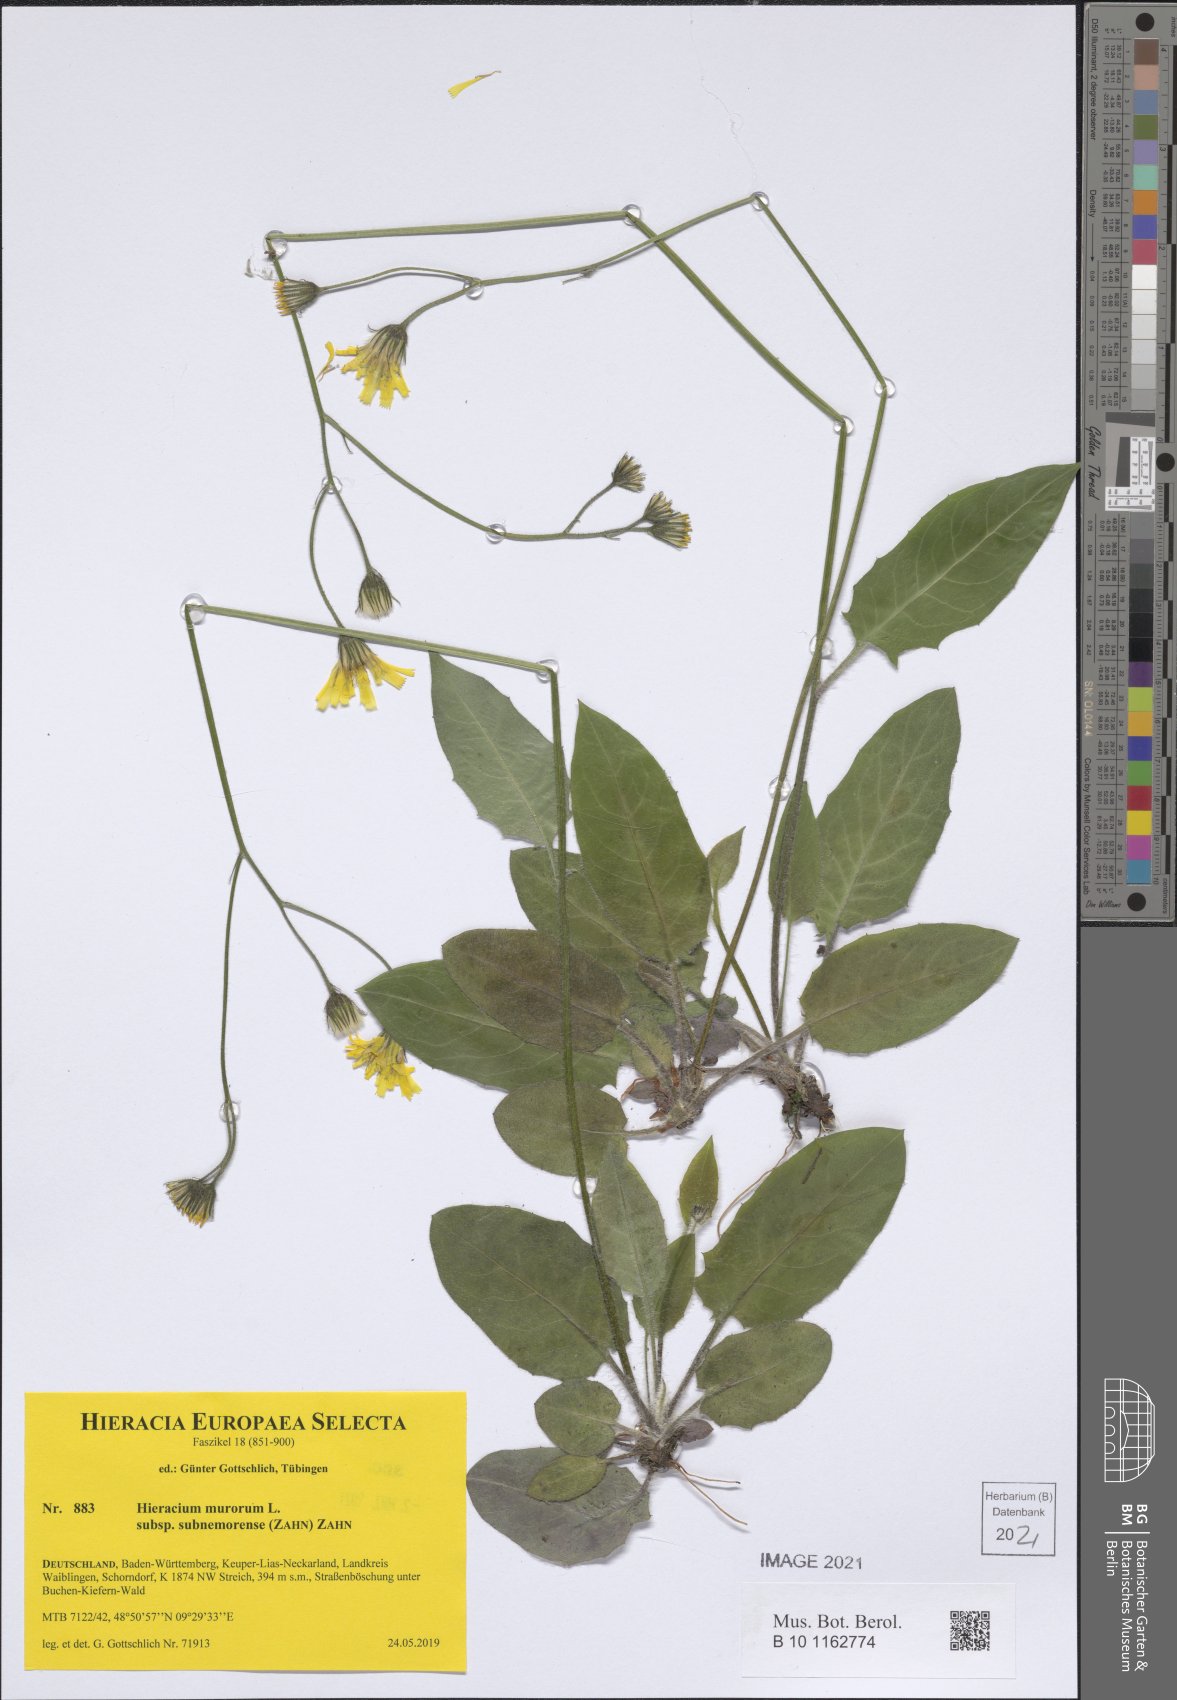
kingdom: Plantae
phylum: Tracheophyta
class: Magnoliopsida
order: Asterales
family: Asteraceae
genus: Hieracium
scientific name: Hieracium murorum
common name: Wall hawkweed
